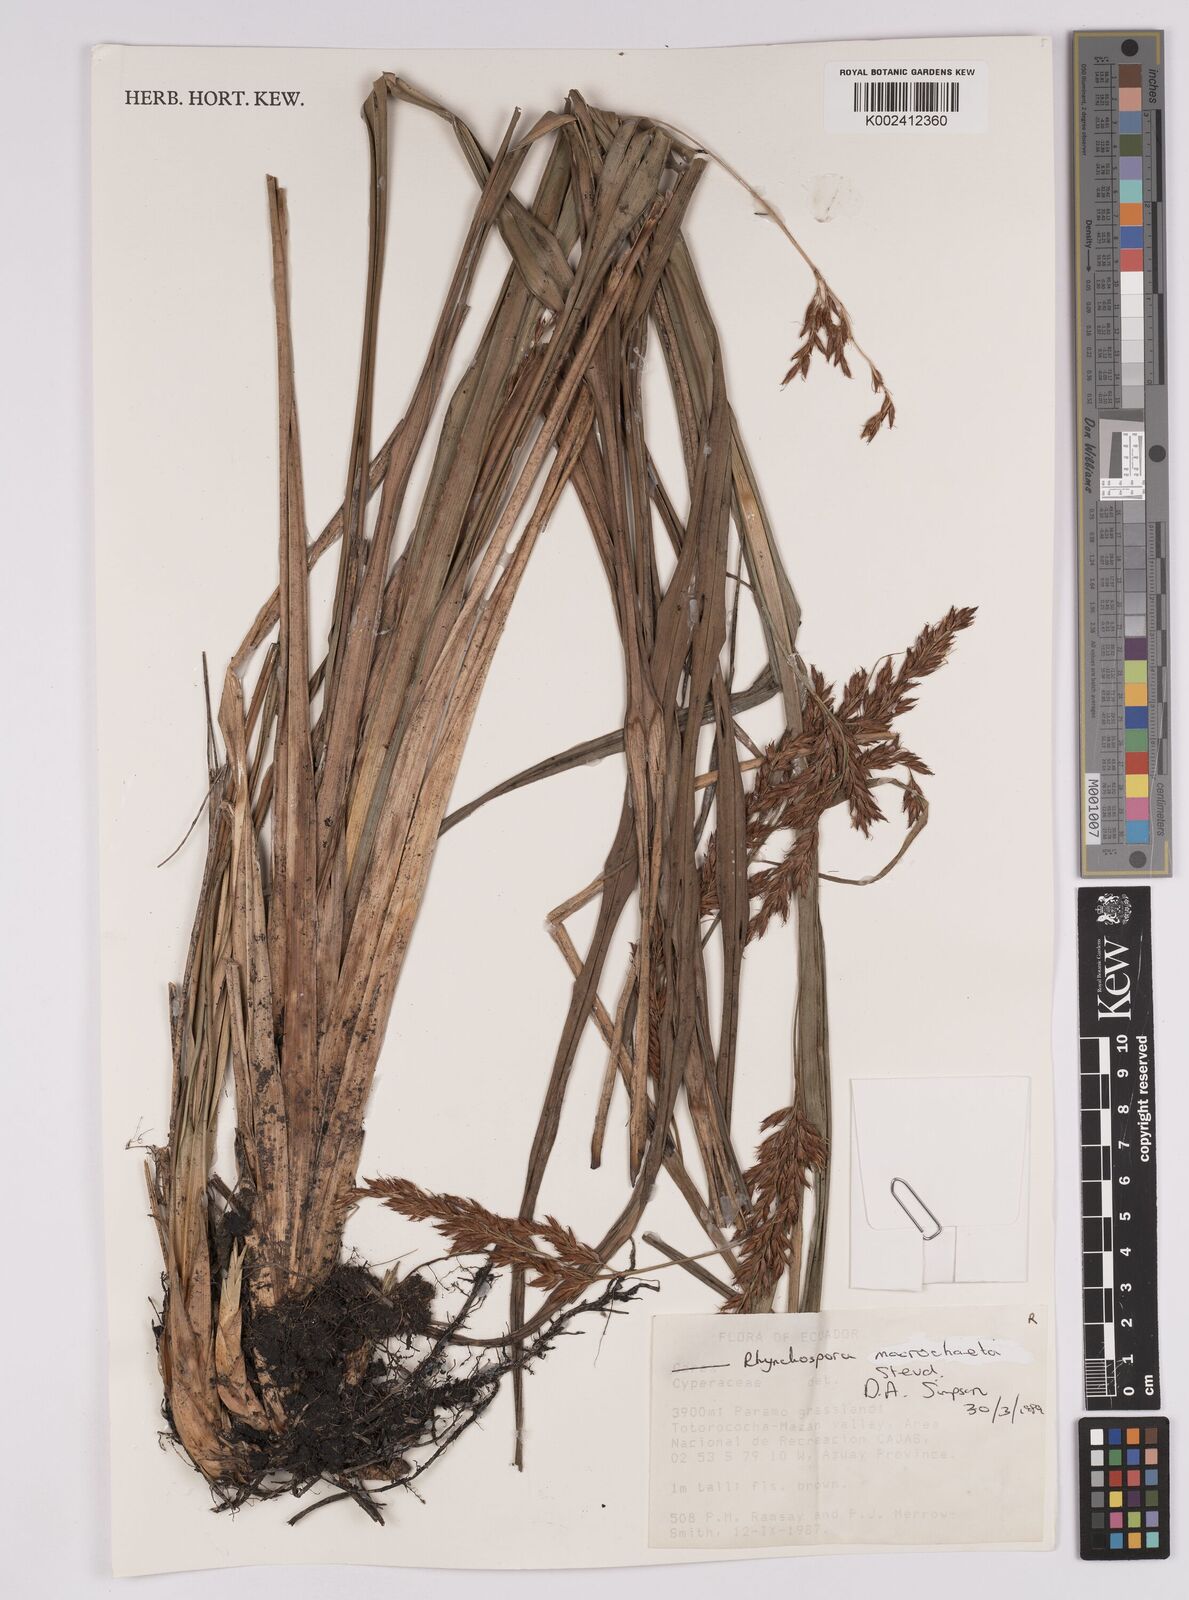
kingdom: Plantae
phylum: Tracheophyta
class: Liliopsida
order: Poales
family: Cyperaceae
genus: Rhynchospora
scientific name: Rhynchospora macrochaeta
